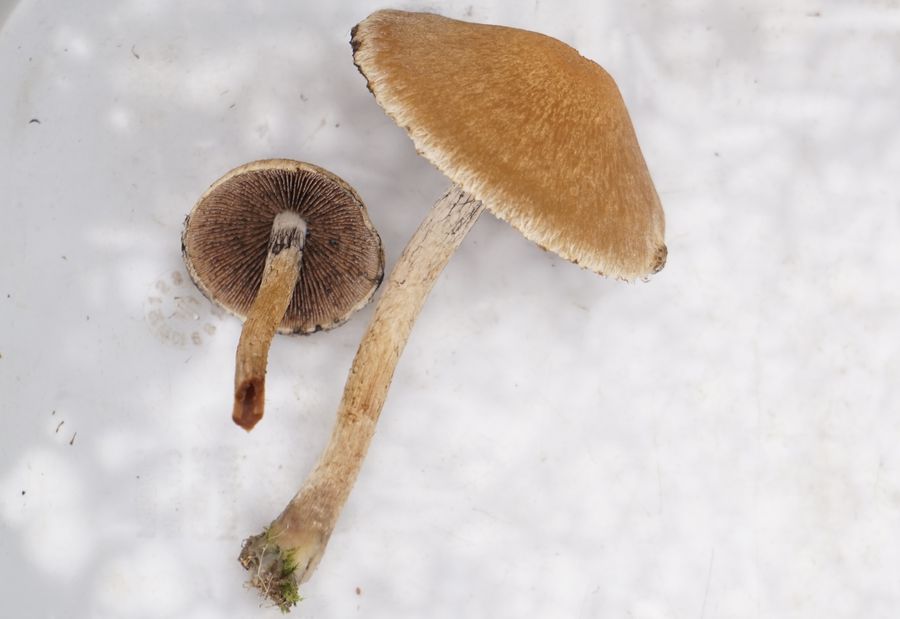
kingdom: Fungi
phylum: Basidiomycota
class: Agaricomycetes
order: Agaricales
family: Psathyrellaceae
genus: Lacrymaria
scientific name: Lacrymaria lacrymabunda
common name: grædende mørkhat
